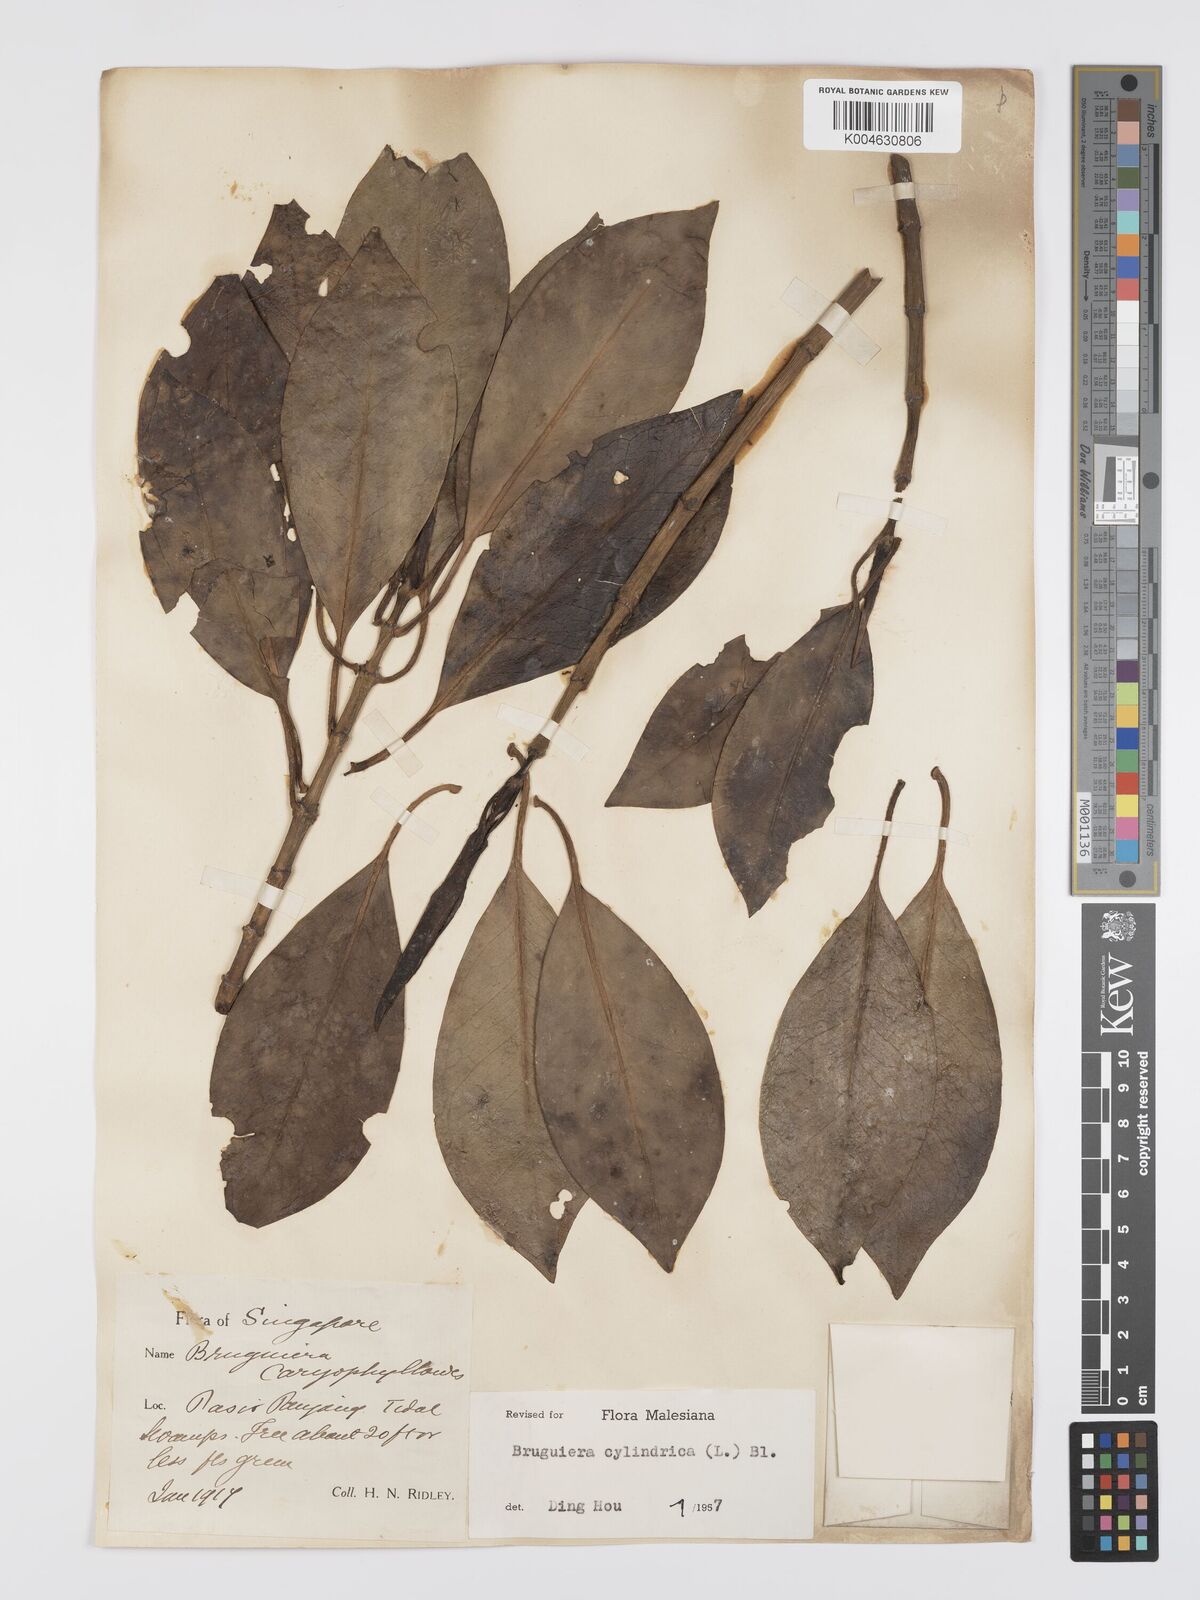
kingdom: Plantae
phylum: Tracheophyta
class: Magnoliopsida
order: Malpighiales
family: Rhizophoraceae
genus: Bruguiera
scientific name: Bruguiera cylindrica
